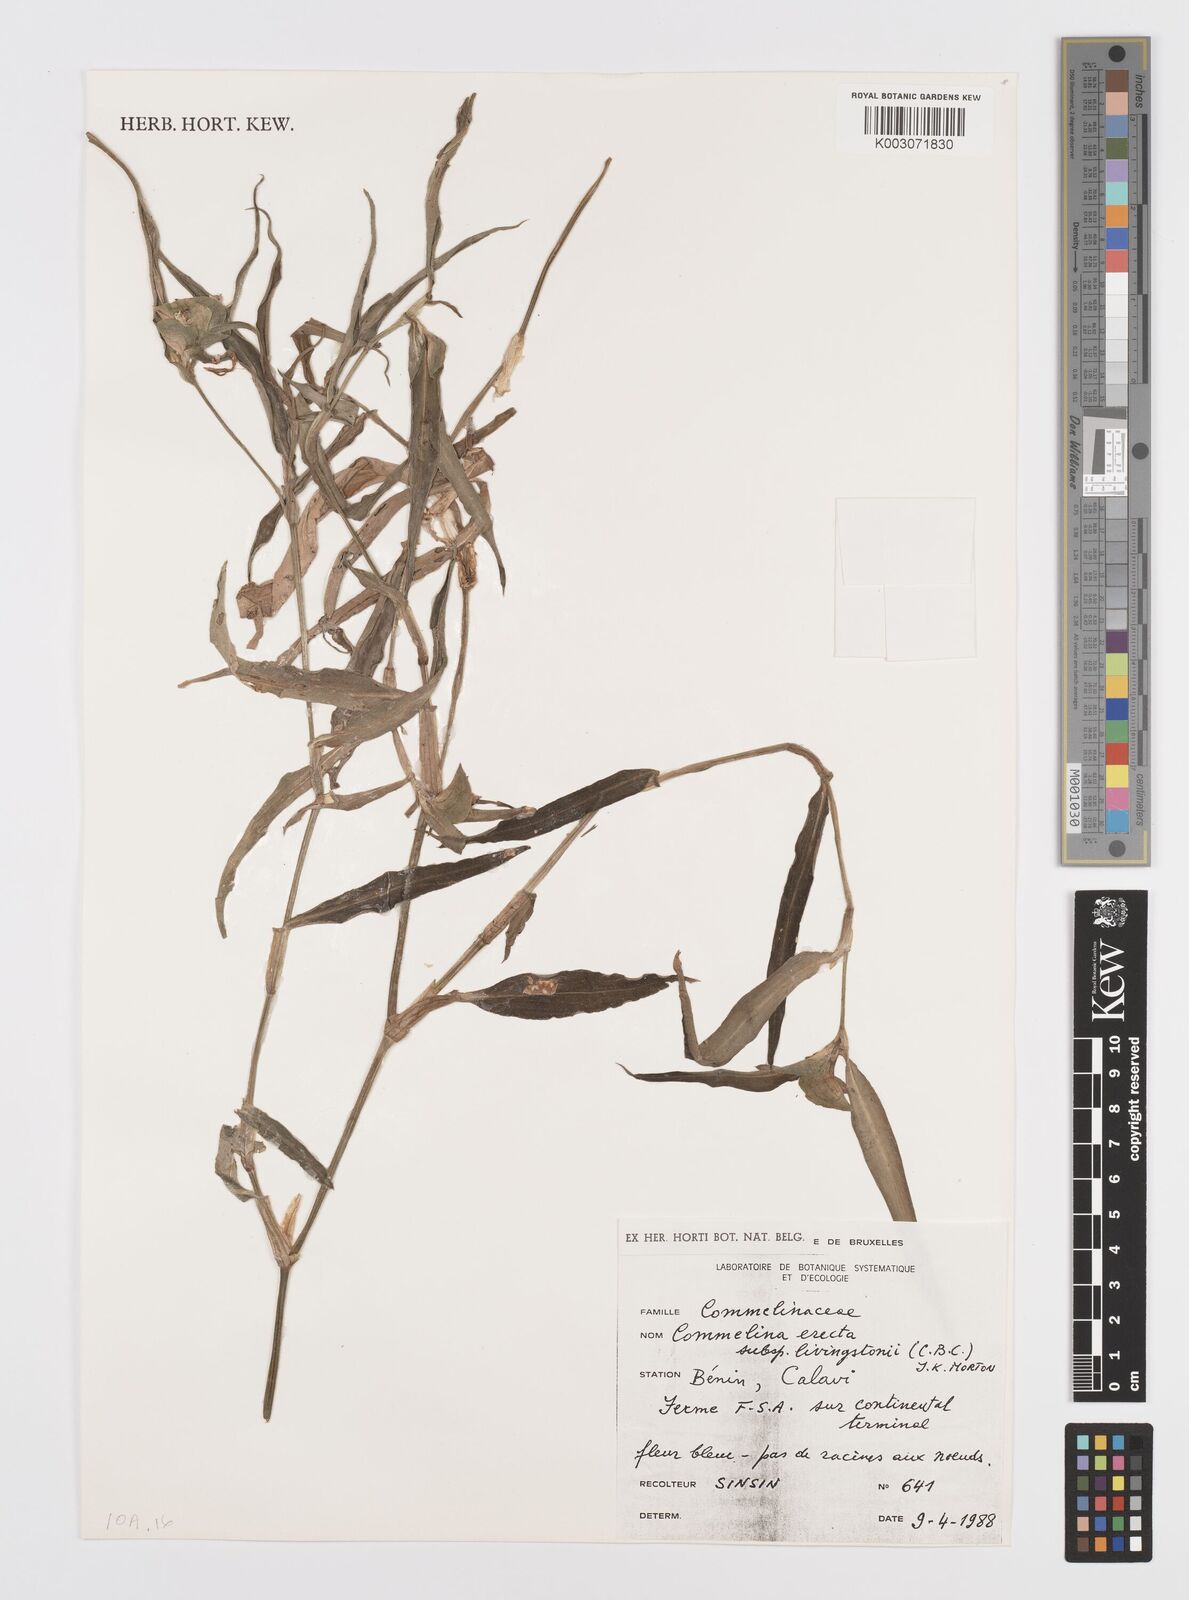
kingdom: Plantae
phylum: Tracheophyta
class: Liliopsida
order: Commelinales
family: Commelinaceae
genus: Commelina
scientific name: Commelina erecta
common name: Blousel blommetjie
